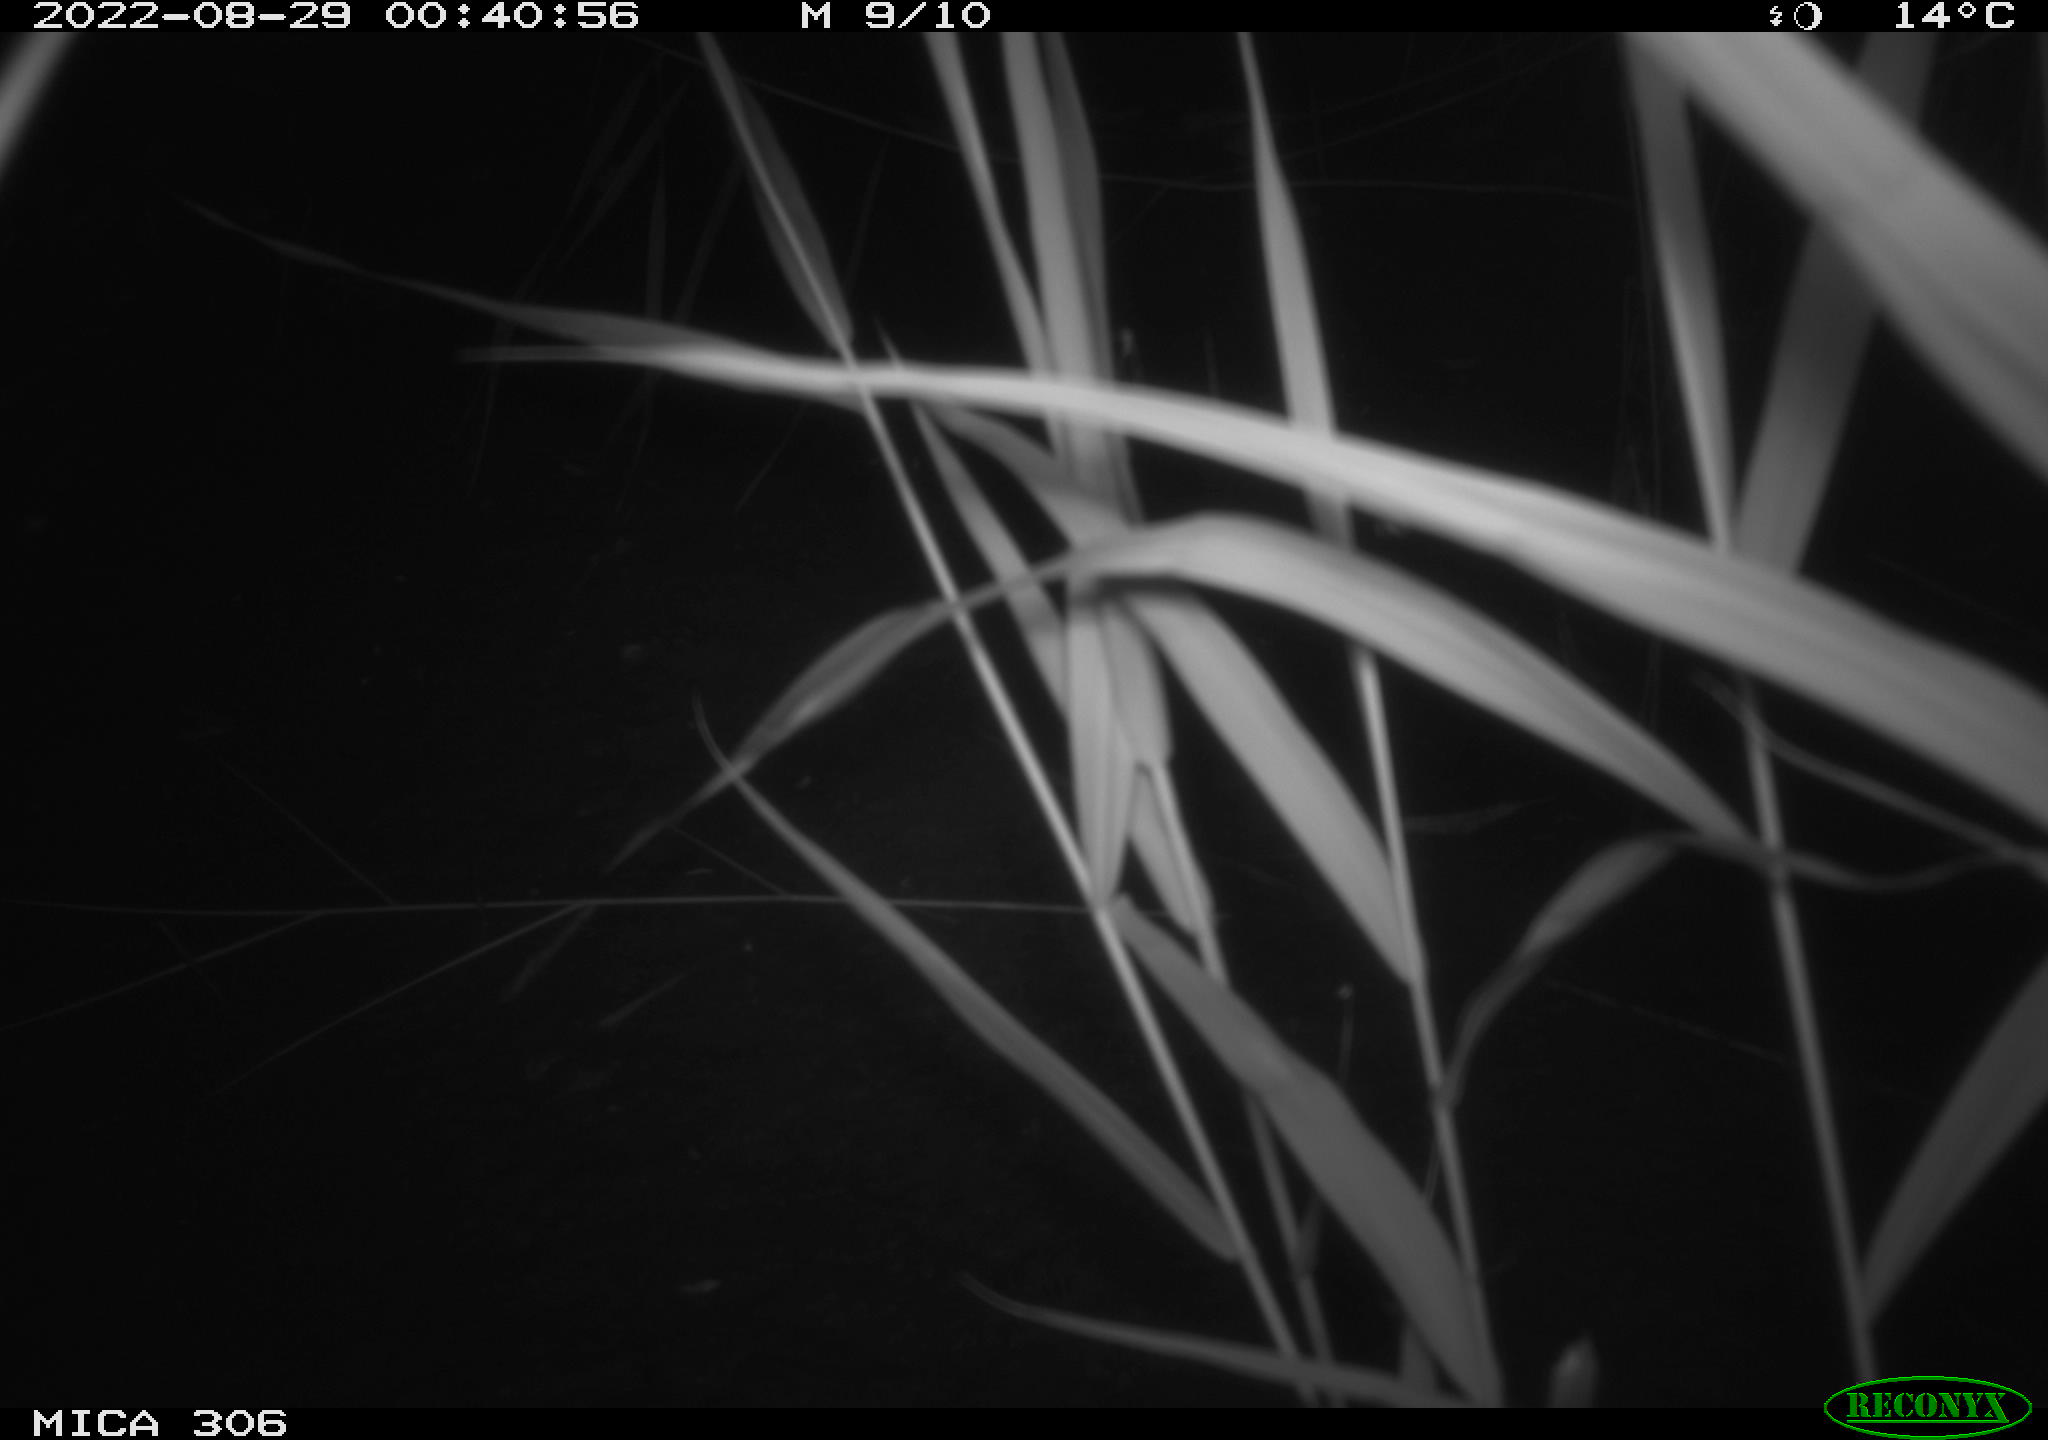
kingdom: Animalia
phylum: Chordata
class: Mammalia
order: Rodentia
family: Muridae
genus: Rattus
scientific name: Rattus norvegicus
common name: Brown rat
